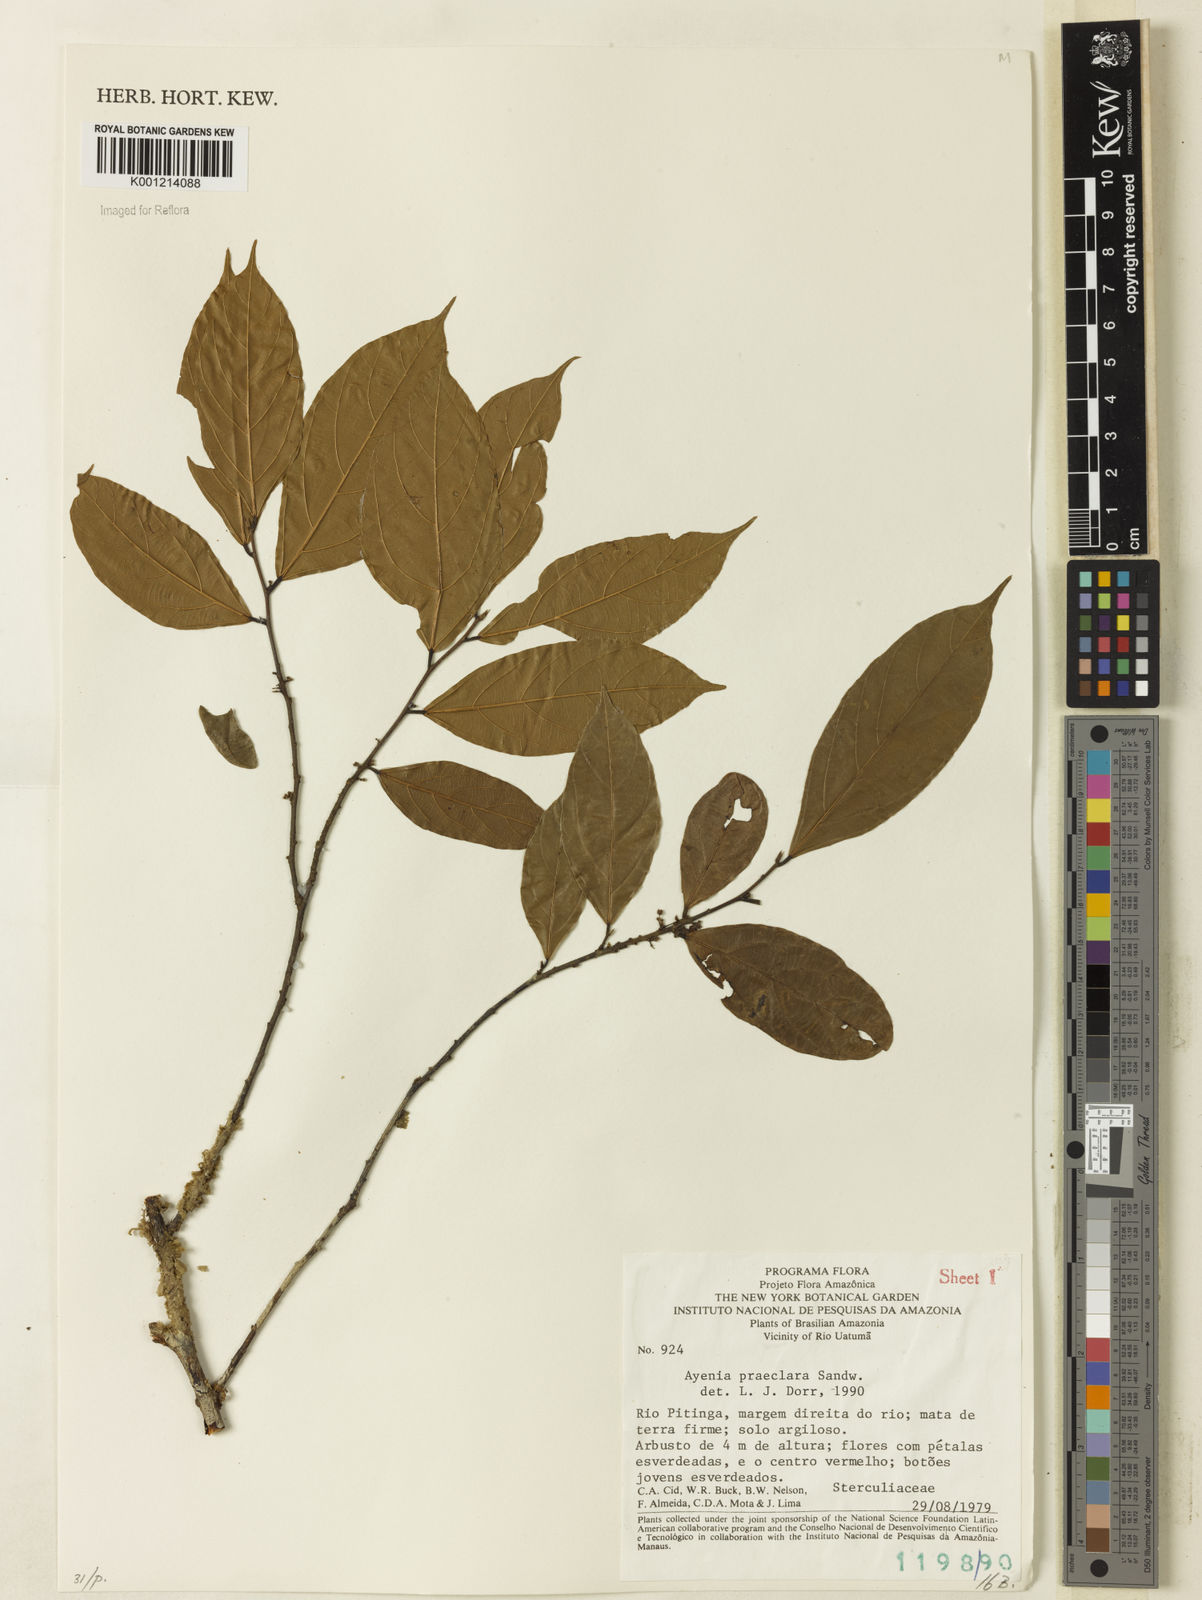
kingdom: Plantae
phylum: Tracheophyta
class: Magnoliopsida
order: Malvales
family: Malvaceae
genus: Ayenia
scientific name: Ayenia praeclara
